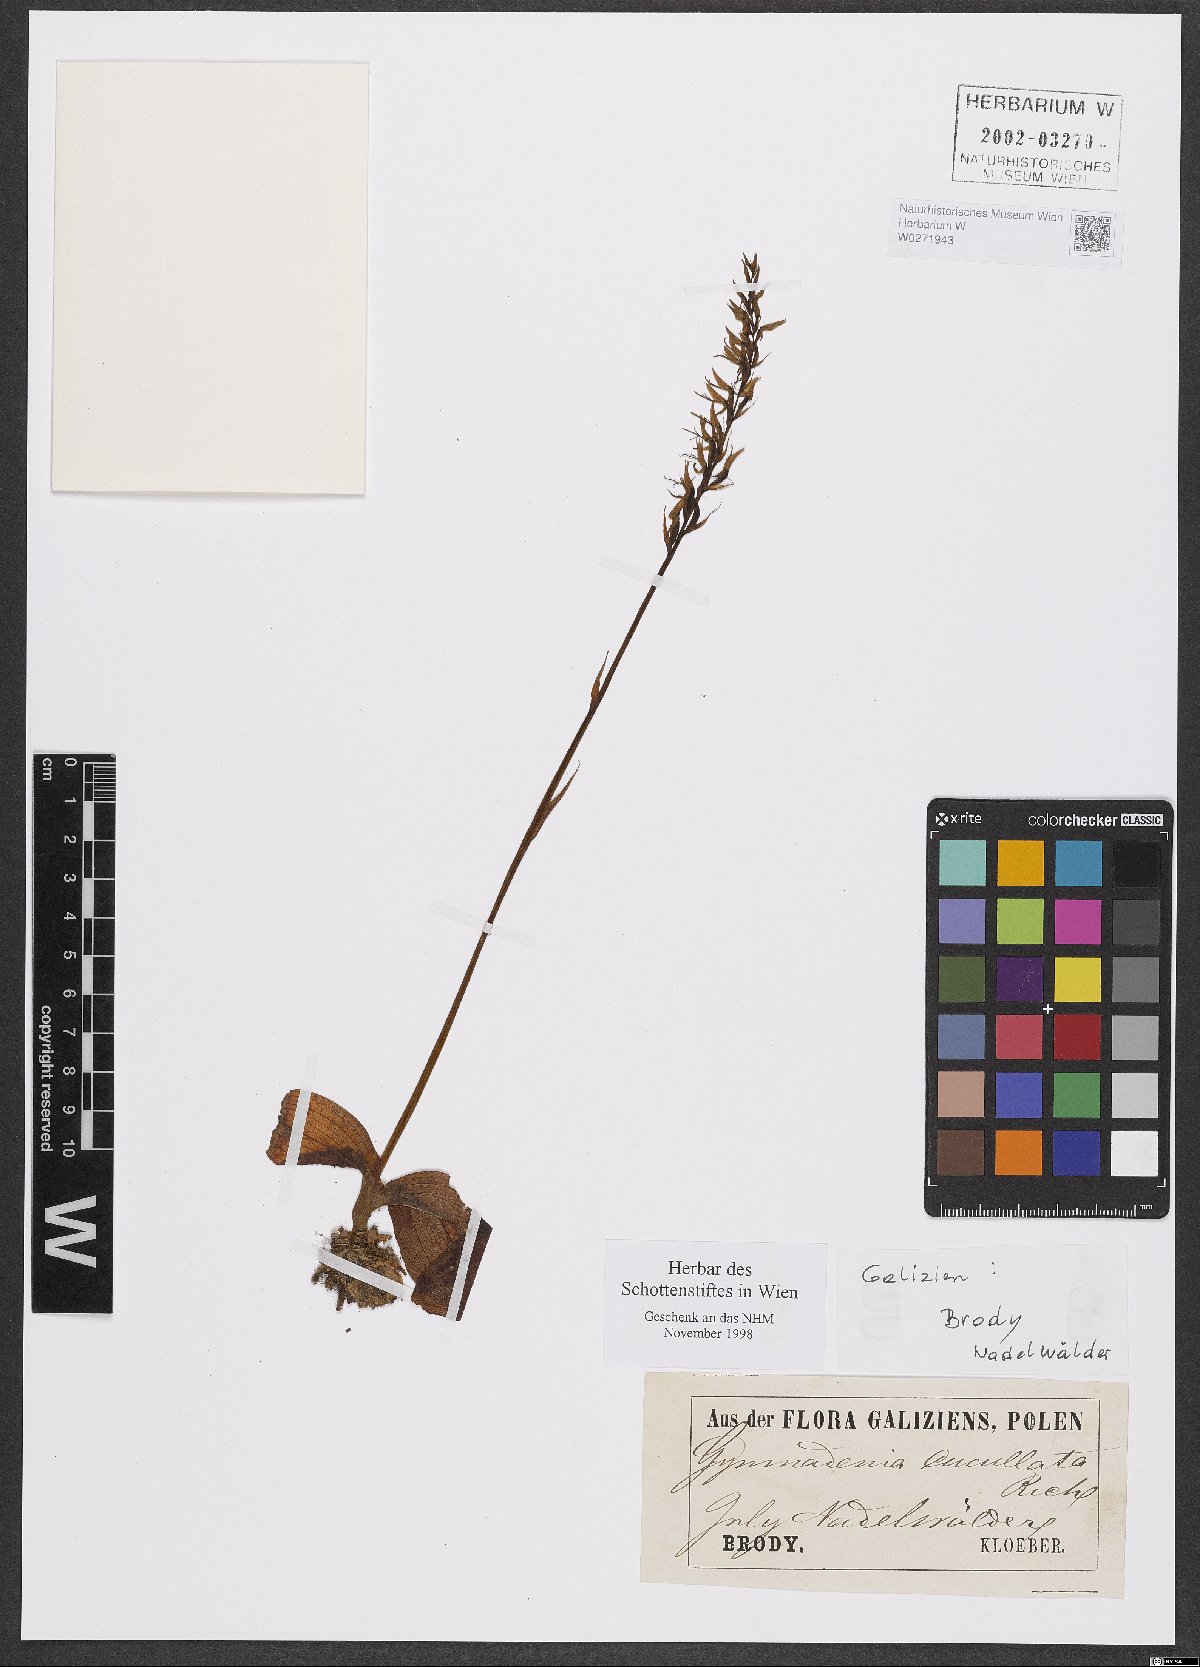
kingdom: Plantae
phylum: Tracheophyta
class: Liliopsida
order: Asparagales
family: Orchidaceae
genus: Hemipilia
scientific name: Hemipilia cucullata
